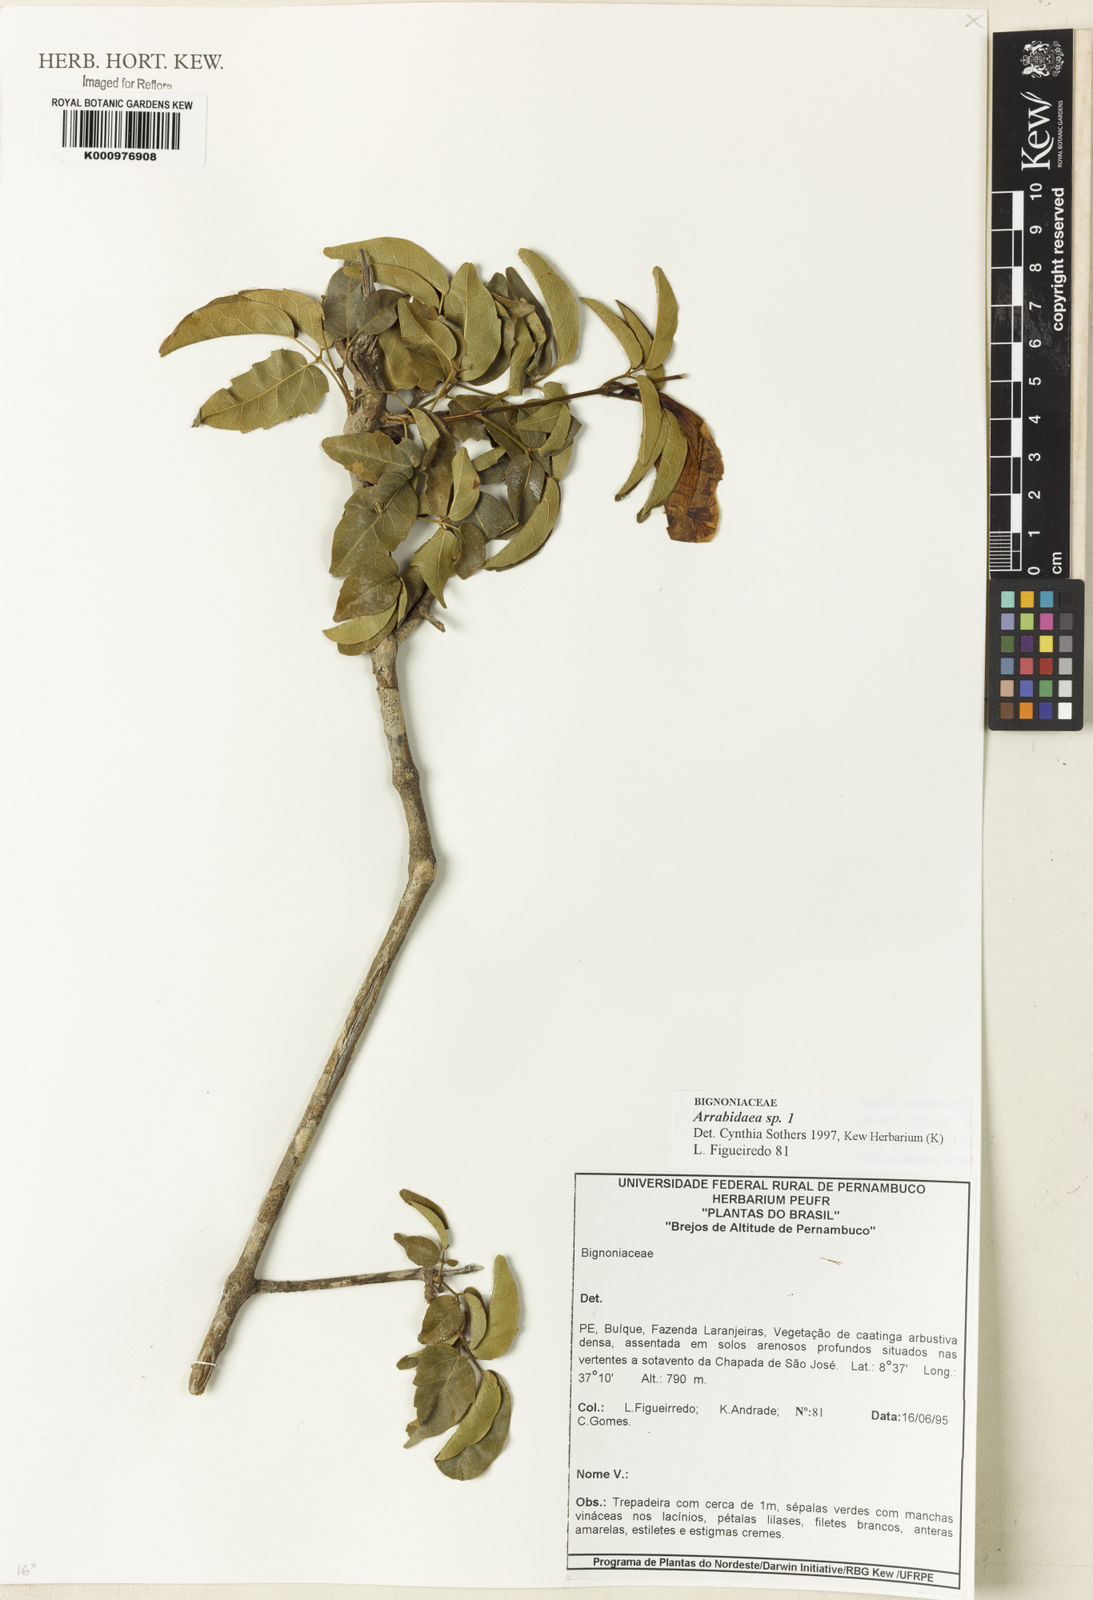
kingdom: Plantae
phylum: Tracheophyta
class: Magnoliopsida
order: Rosales
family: Rhamnaceae
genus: Arrabidaea
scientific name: Arrabidaea
